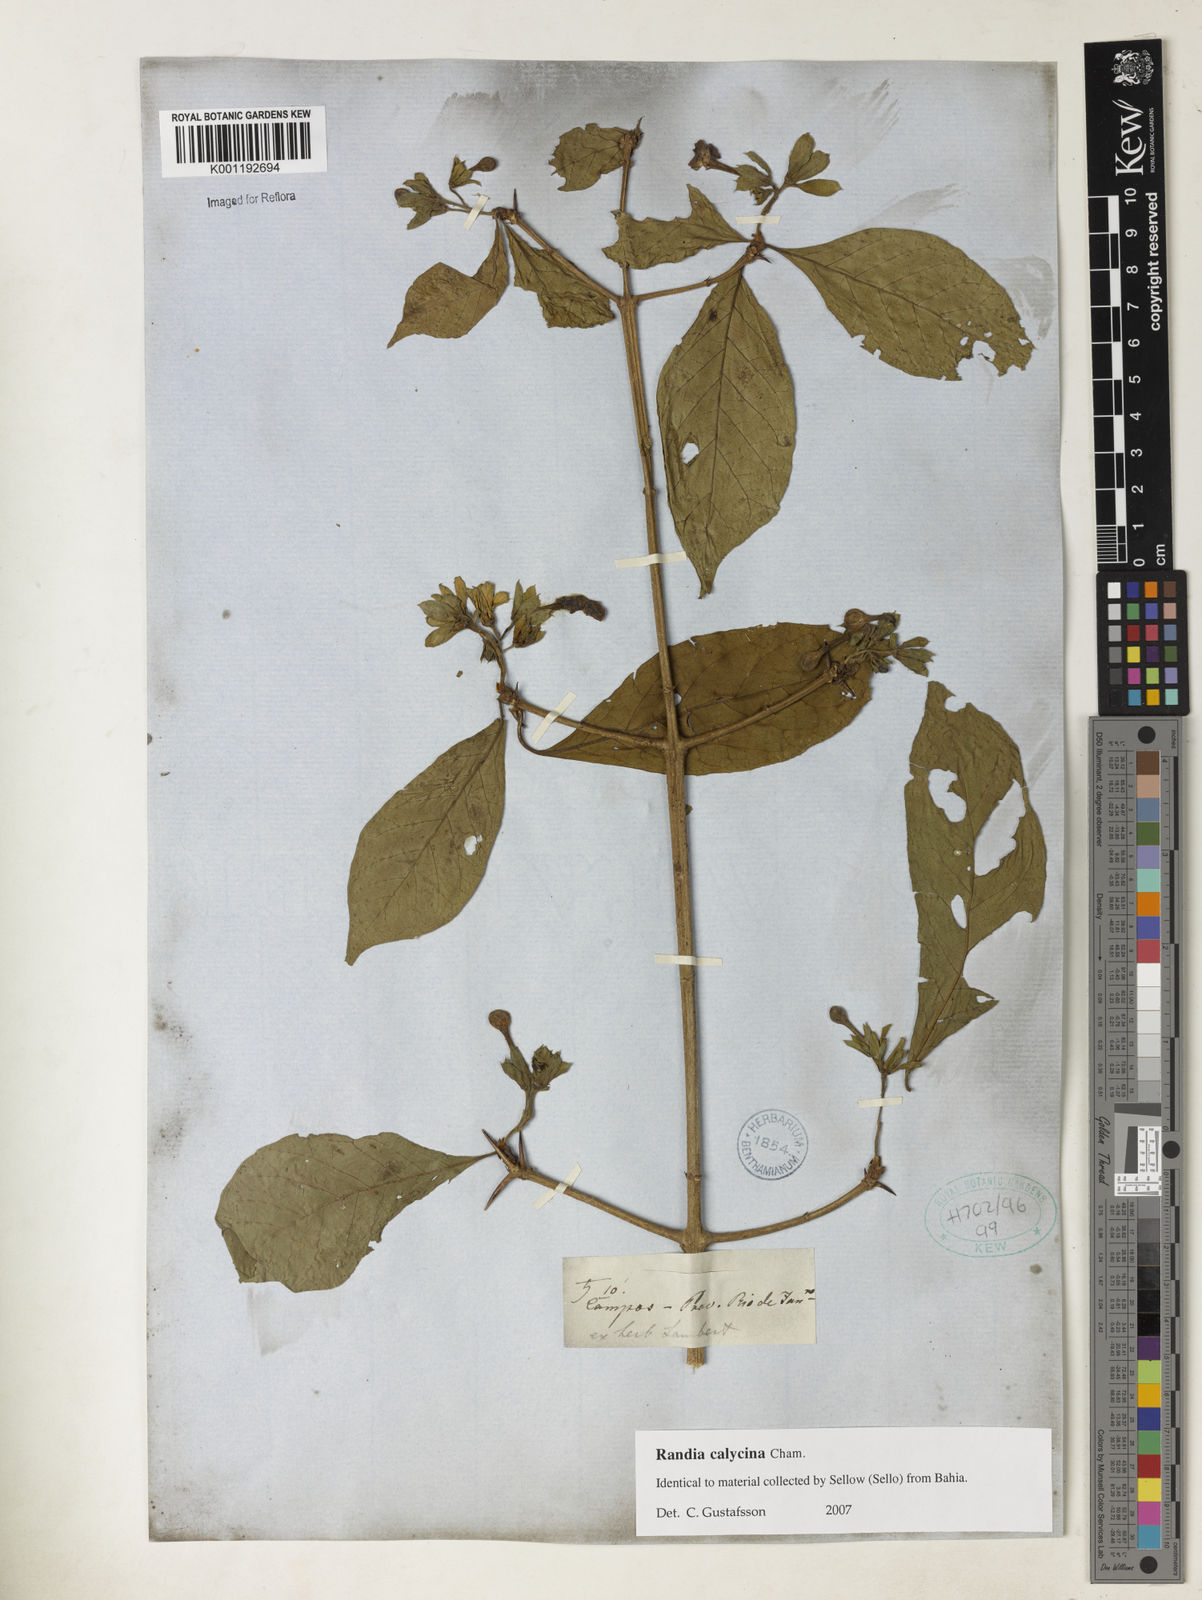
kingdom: Plantae
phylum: Tracheophyta
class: Magnoliopsida
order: Gentianales
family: Rubiaceae
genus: Randia
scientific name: Randia calycina
